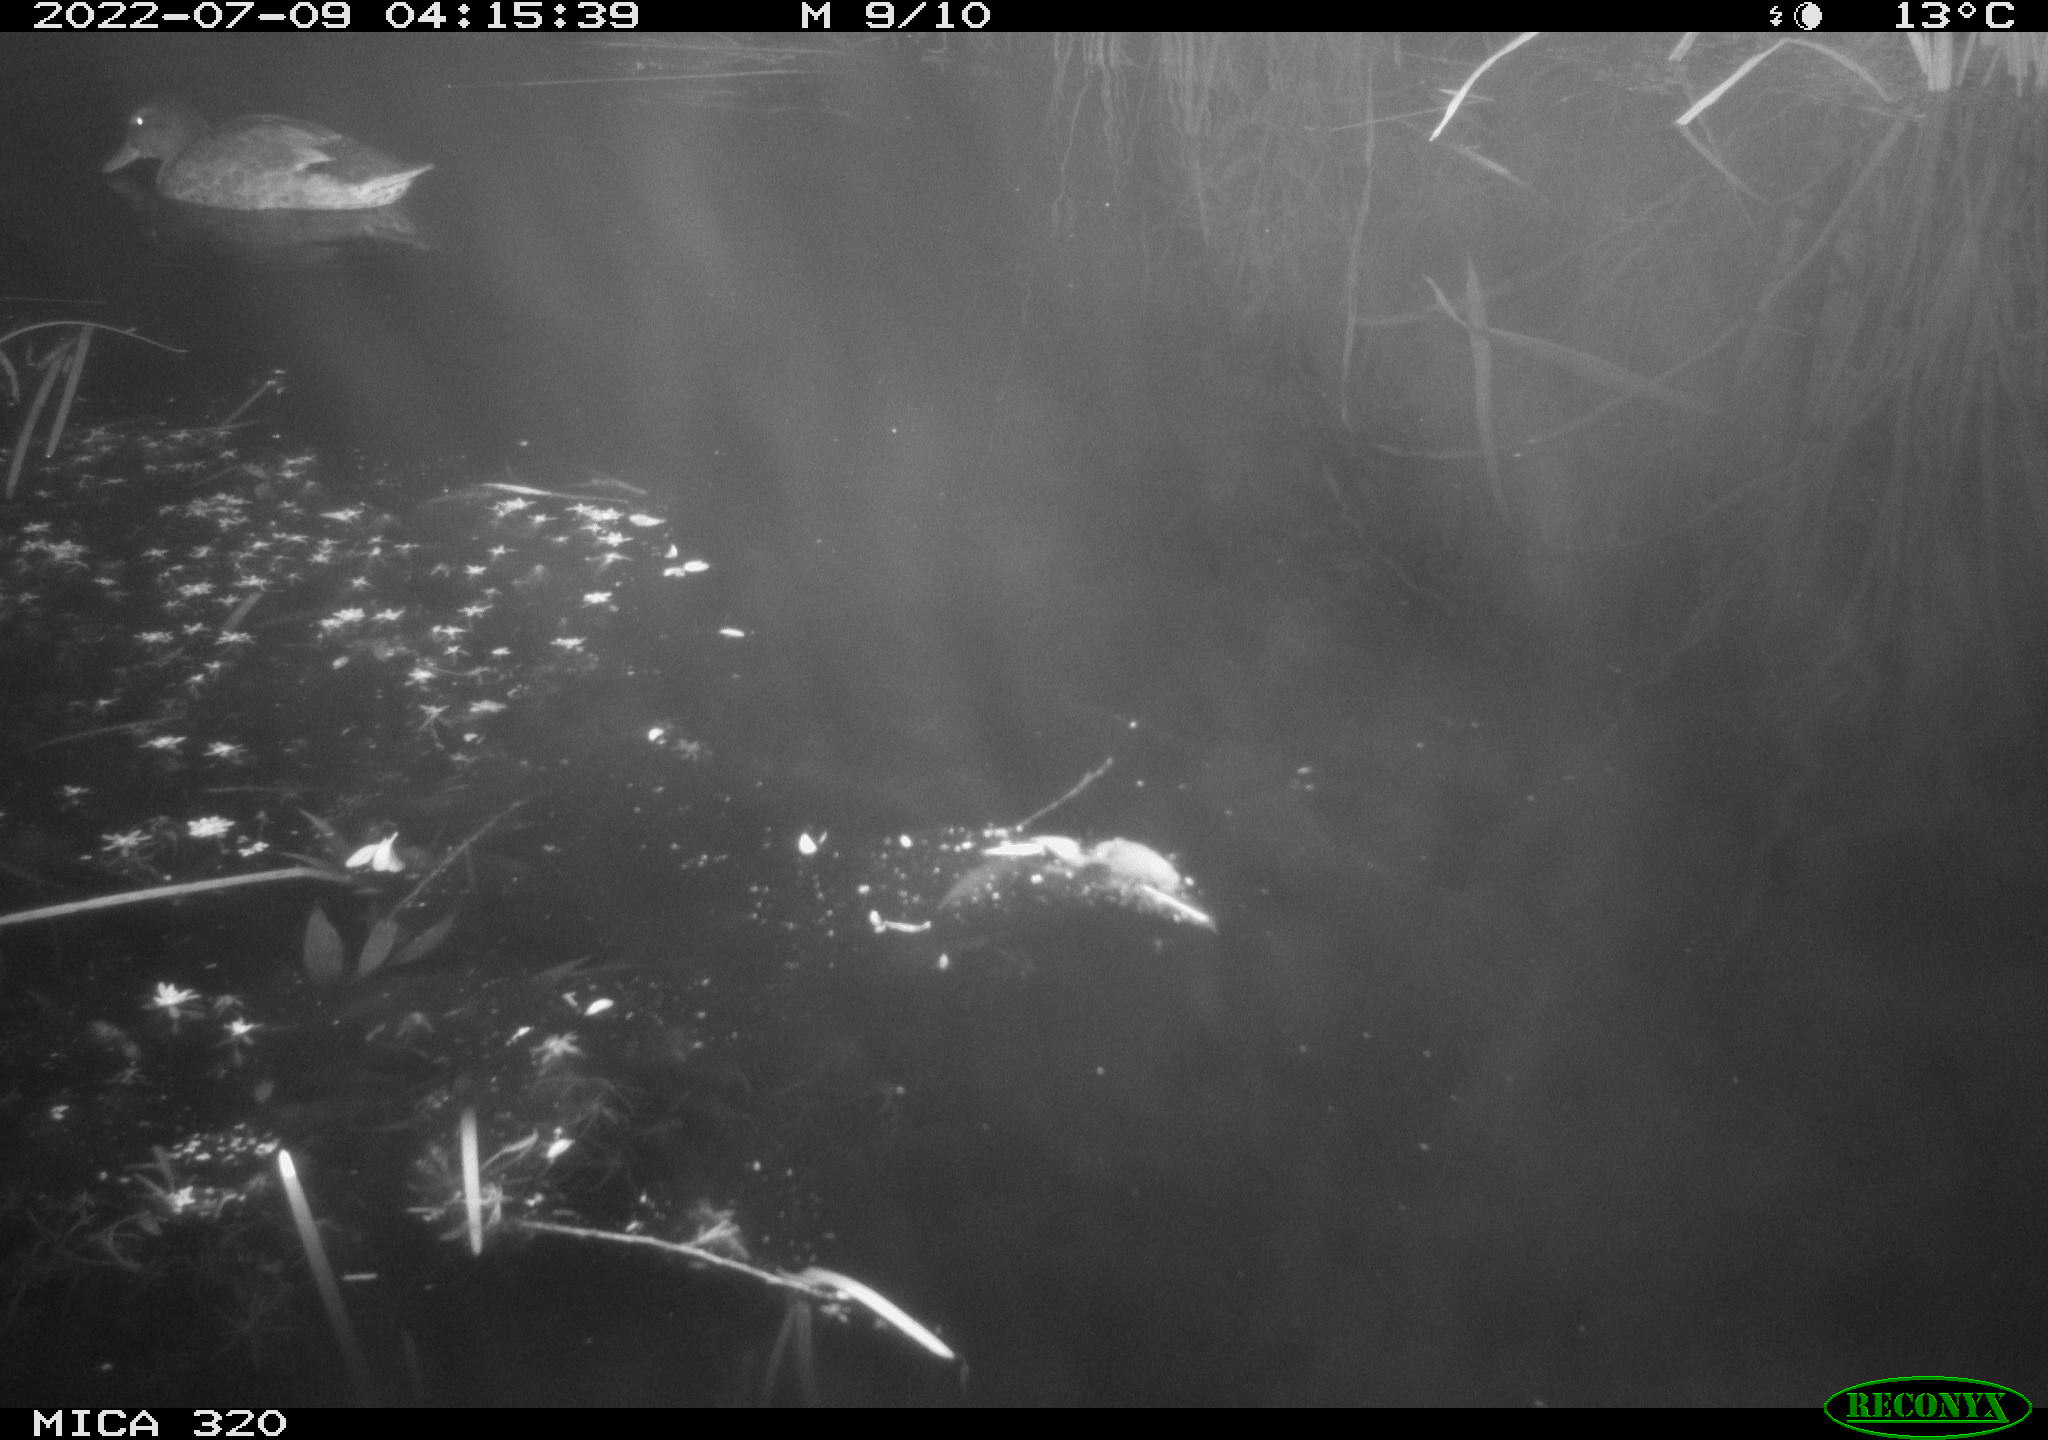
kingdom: Animalia
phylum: Chordata
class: Aves
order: Anseriformes
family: Anatidae
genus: Mareca
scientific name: Mareca strepera
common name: Gadwall
